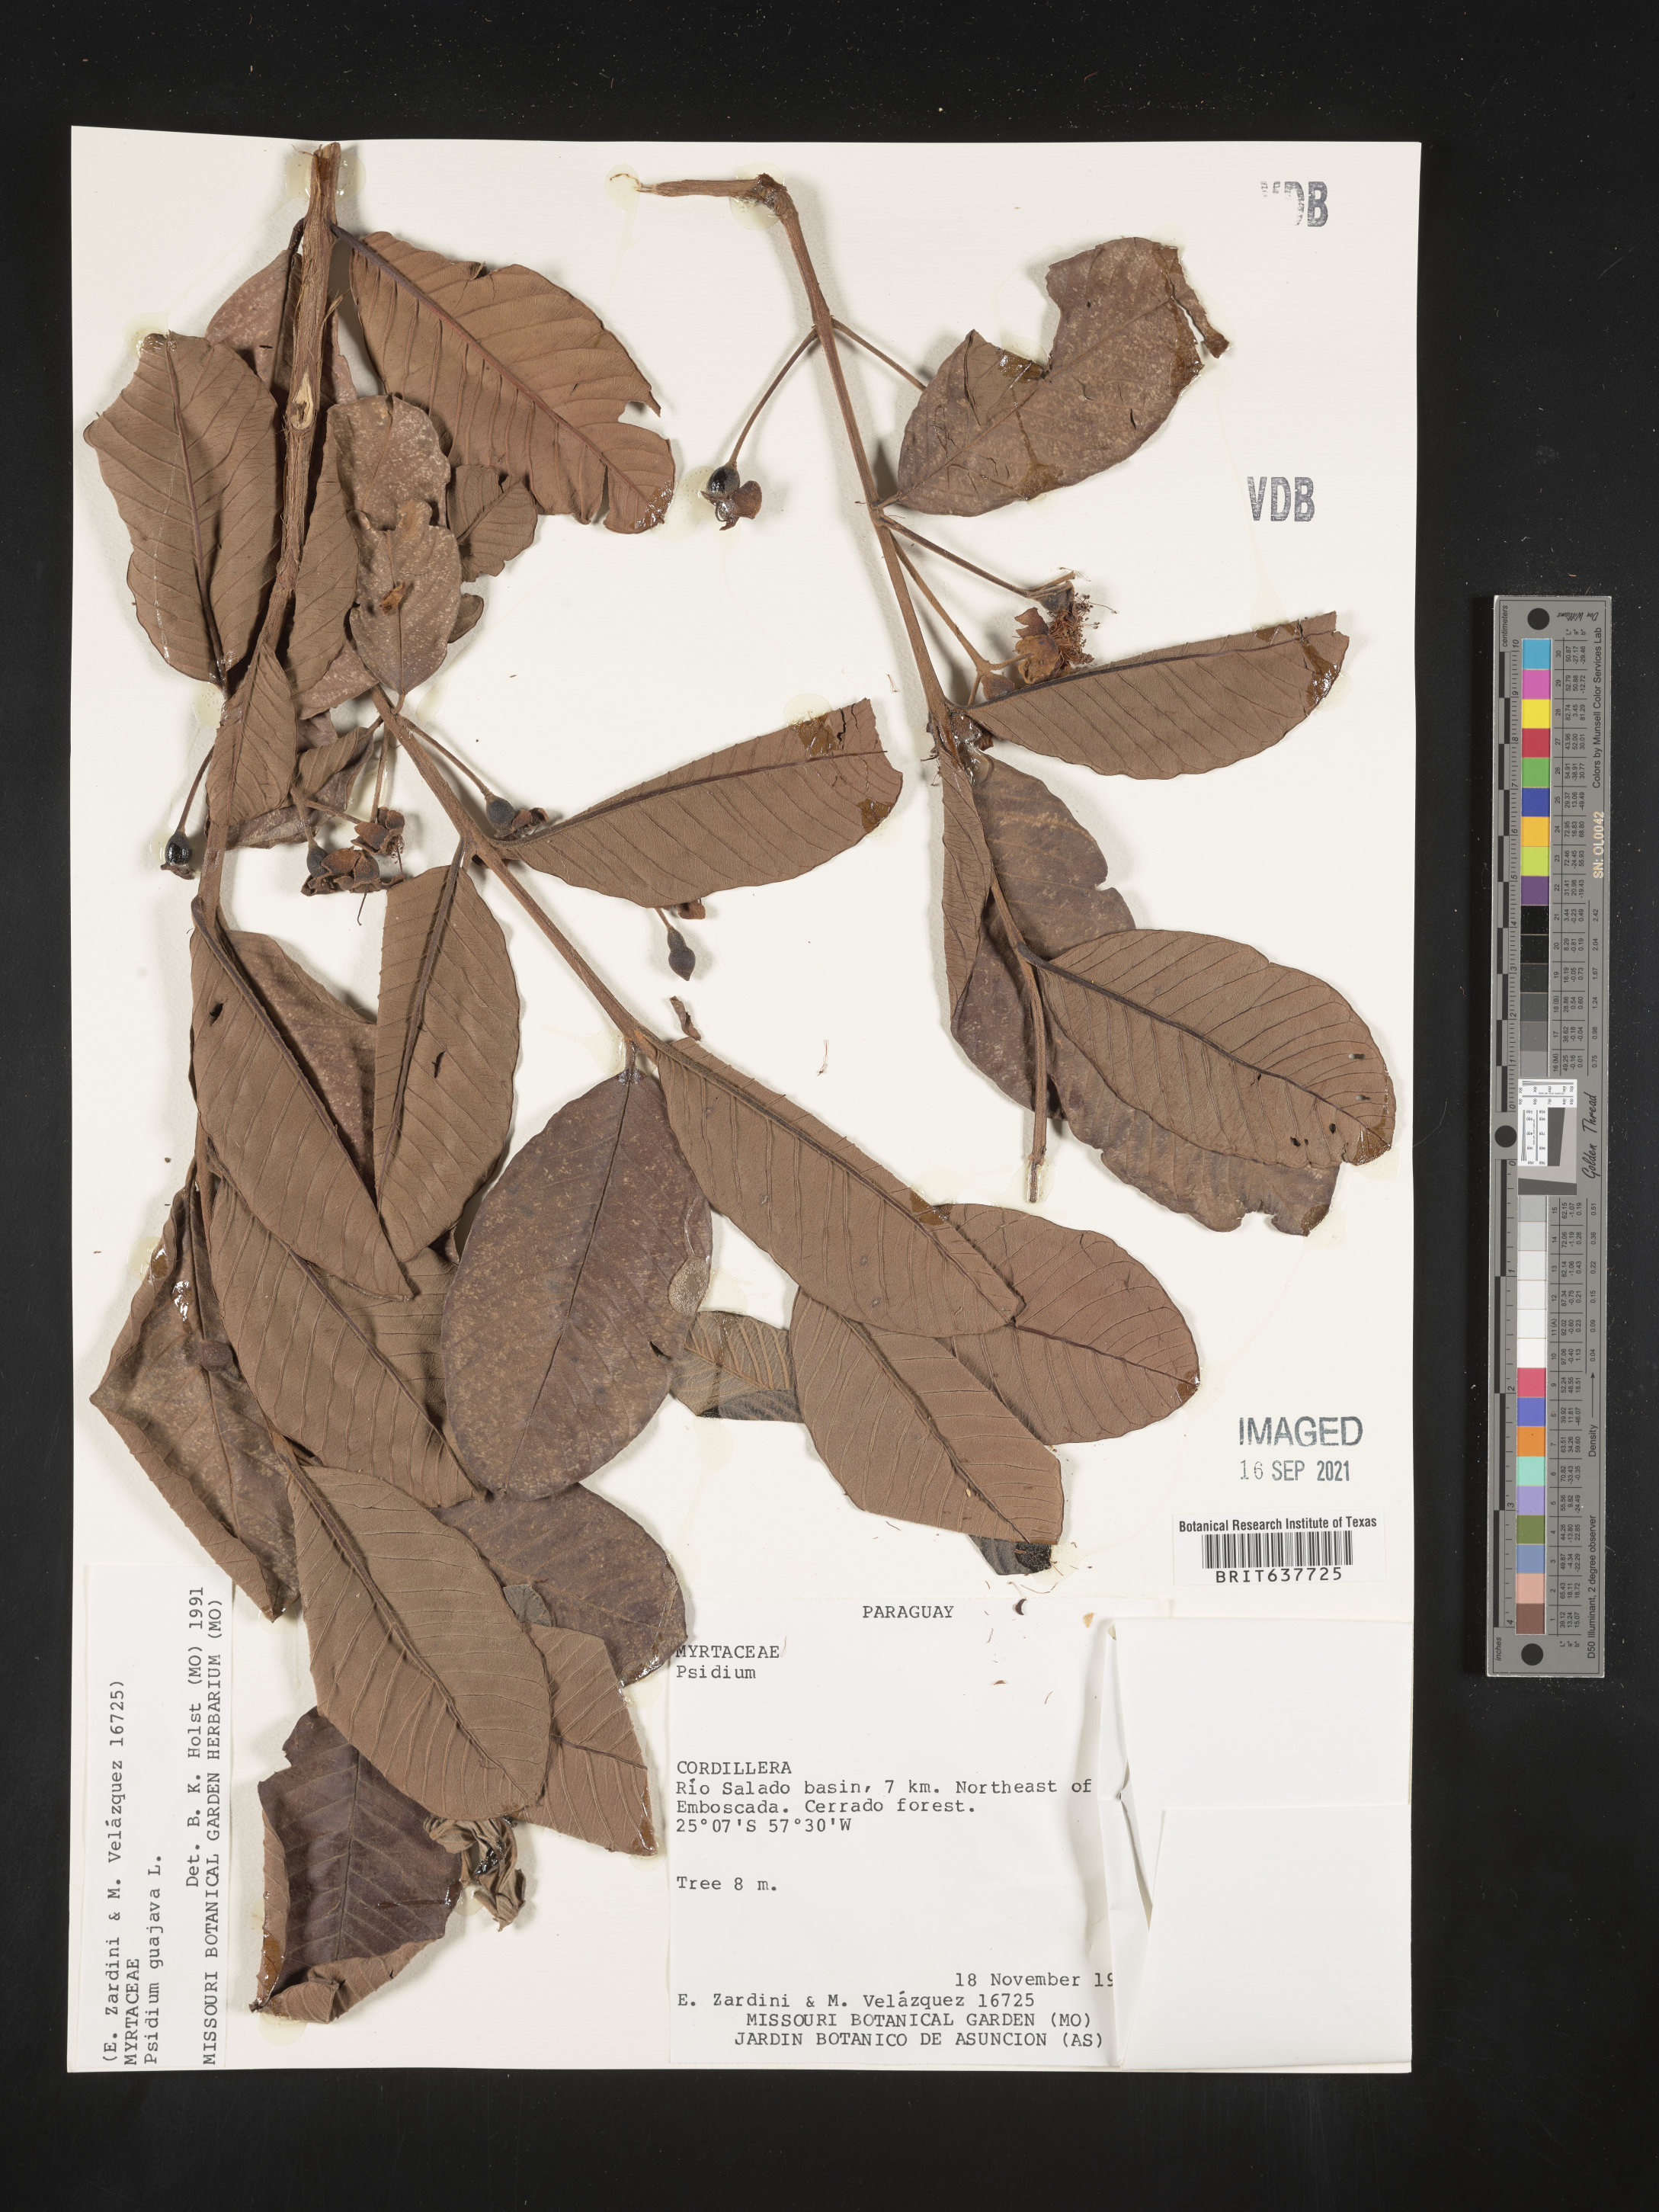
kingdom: Plantae
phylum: Tracheophyta
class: Magnoliopsida
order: Myrtales
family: Myrtaceae
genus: Psidium
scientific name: Psidium
